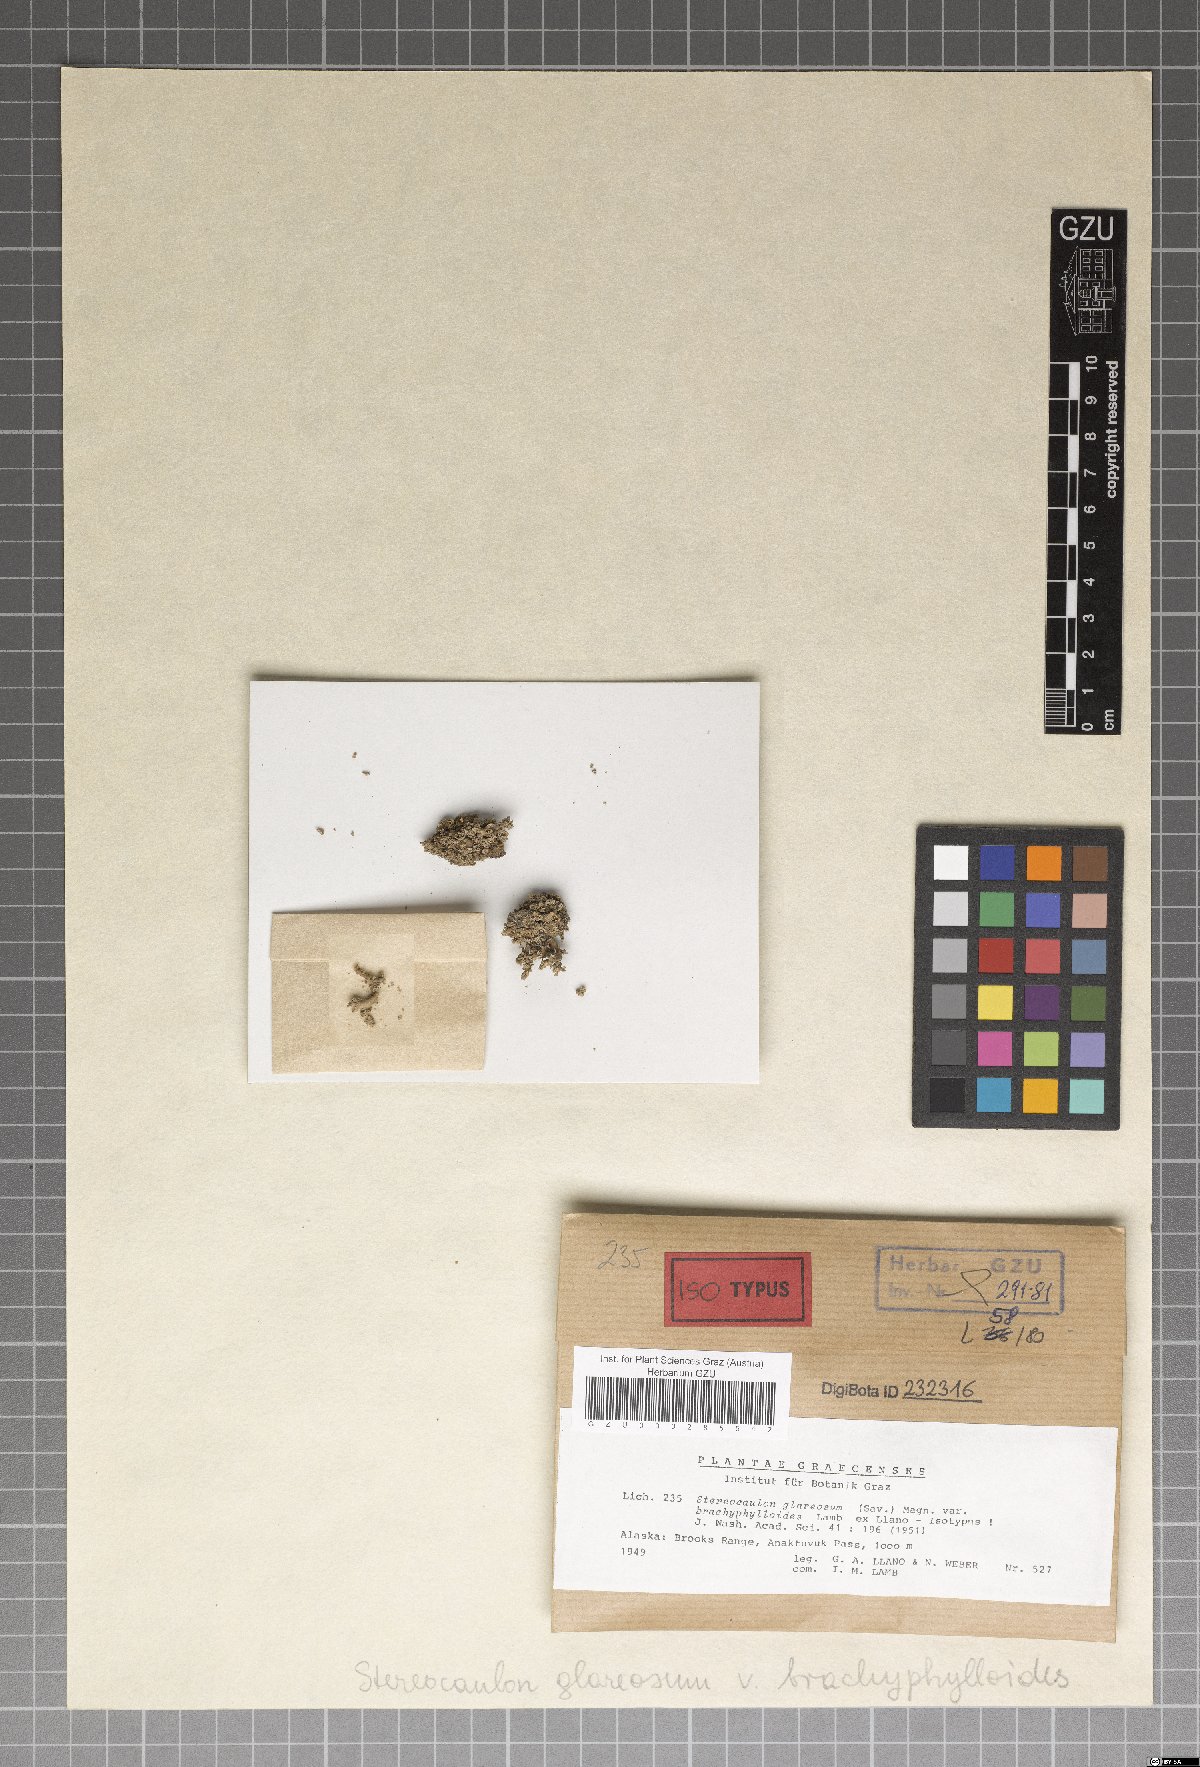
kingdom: Fungi
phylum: Ascomycota
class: Lecanoromycetes
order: Lecanorales
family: Stereocaulaceae
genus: Stereocaulon
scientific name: Stereocaulon glareosum
